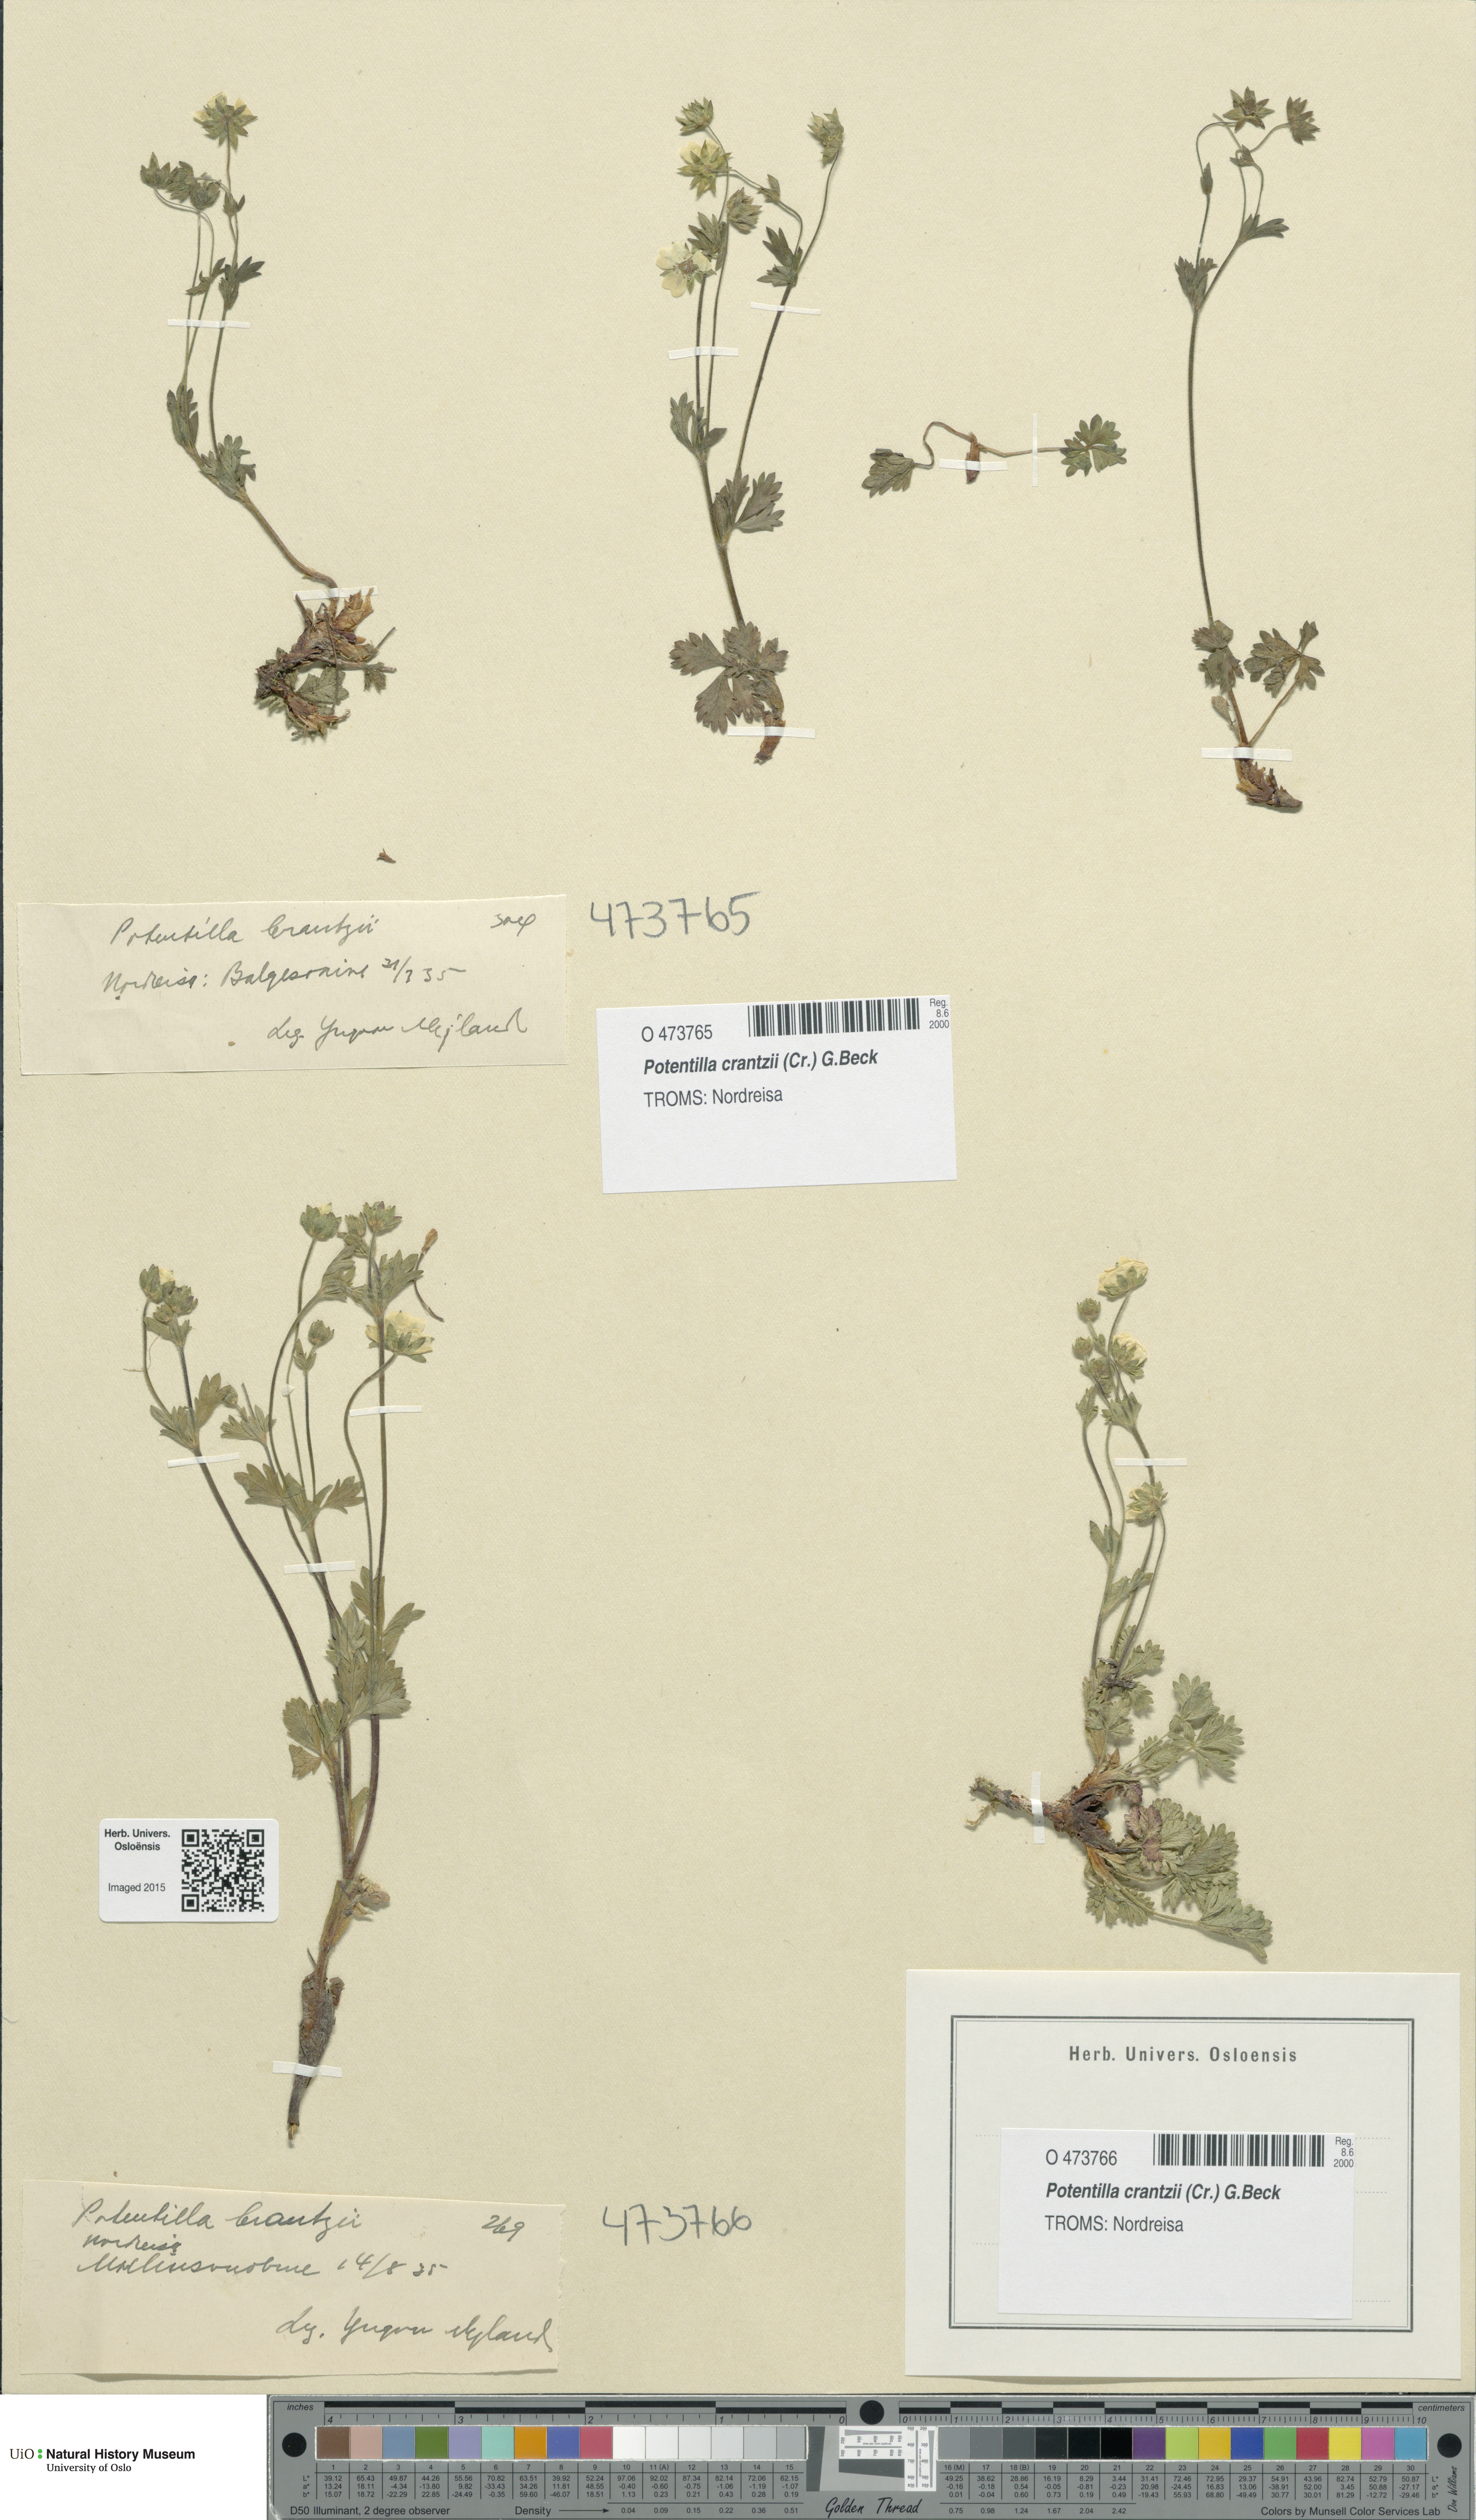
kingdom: Plantae
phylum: Tracheophyta
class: Magnoliopsida
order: Rosales
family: Rosaceae
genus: Potentilla
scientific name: Potentilla crantzii
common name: Alpine cinquefoil
